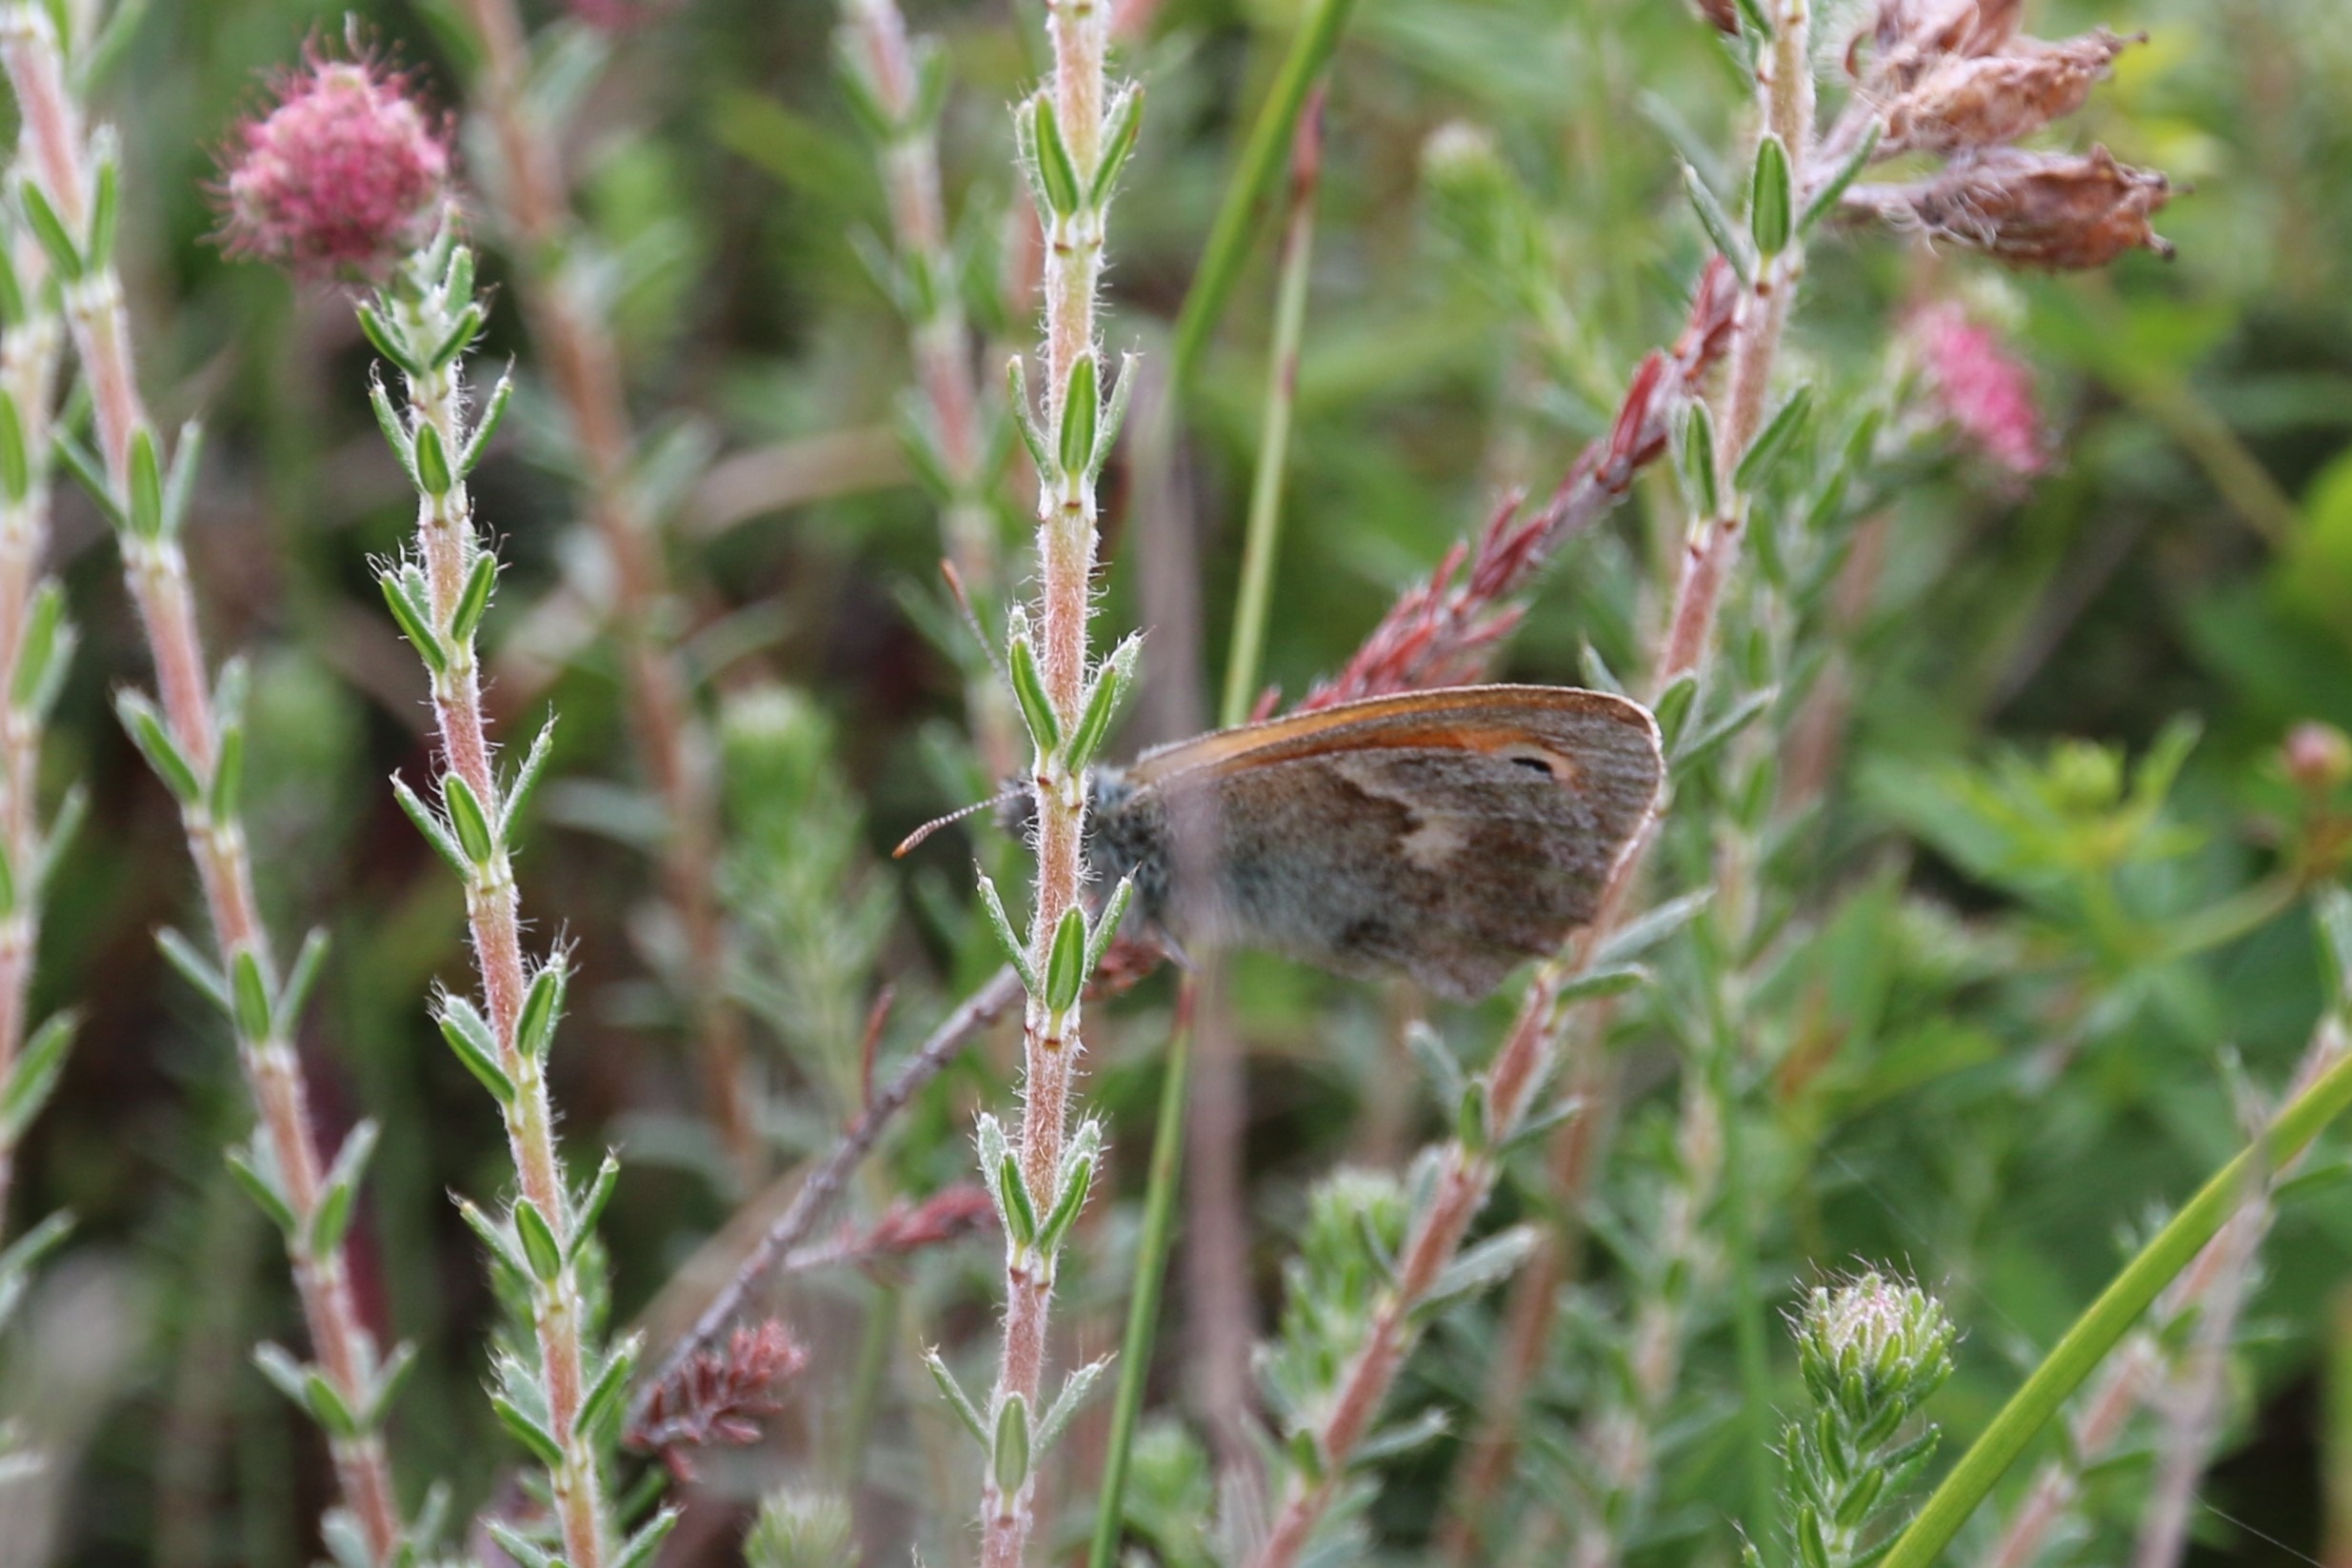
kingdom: Animalia
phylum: Arthropoda
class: Insecta
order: Lepidoptera
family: Nymphalidae
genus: Coenonympha
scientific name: Coenonympha pamphilus
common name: Okkergul randøje
